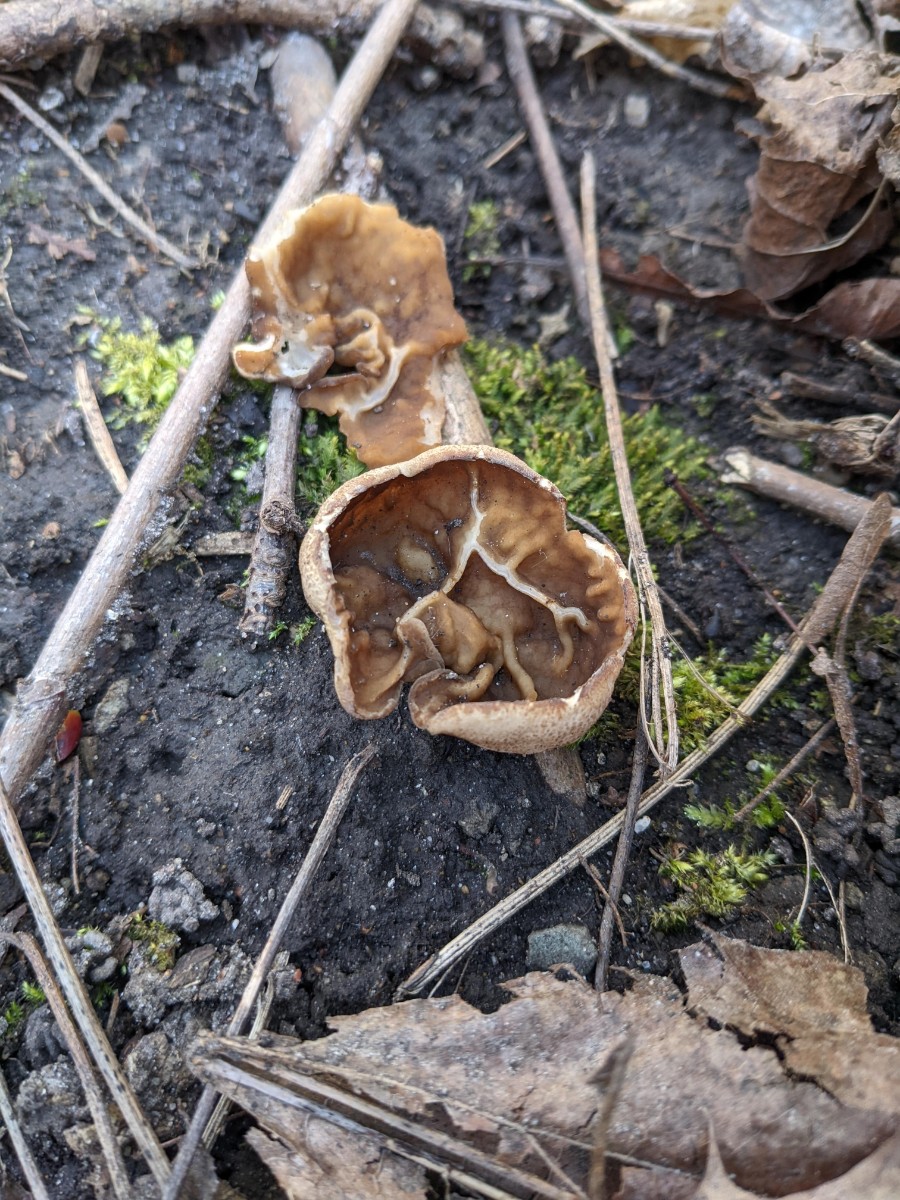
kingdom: Fungi
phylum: Ascomycota
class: Pezizomycetes
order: Pezizales
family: Morchellaceae
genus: Disciotis
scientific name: Disciotis venosa
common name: klor-bægermorkel
